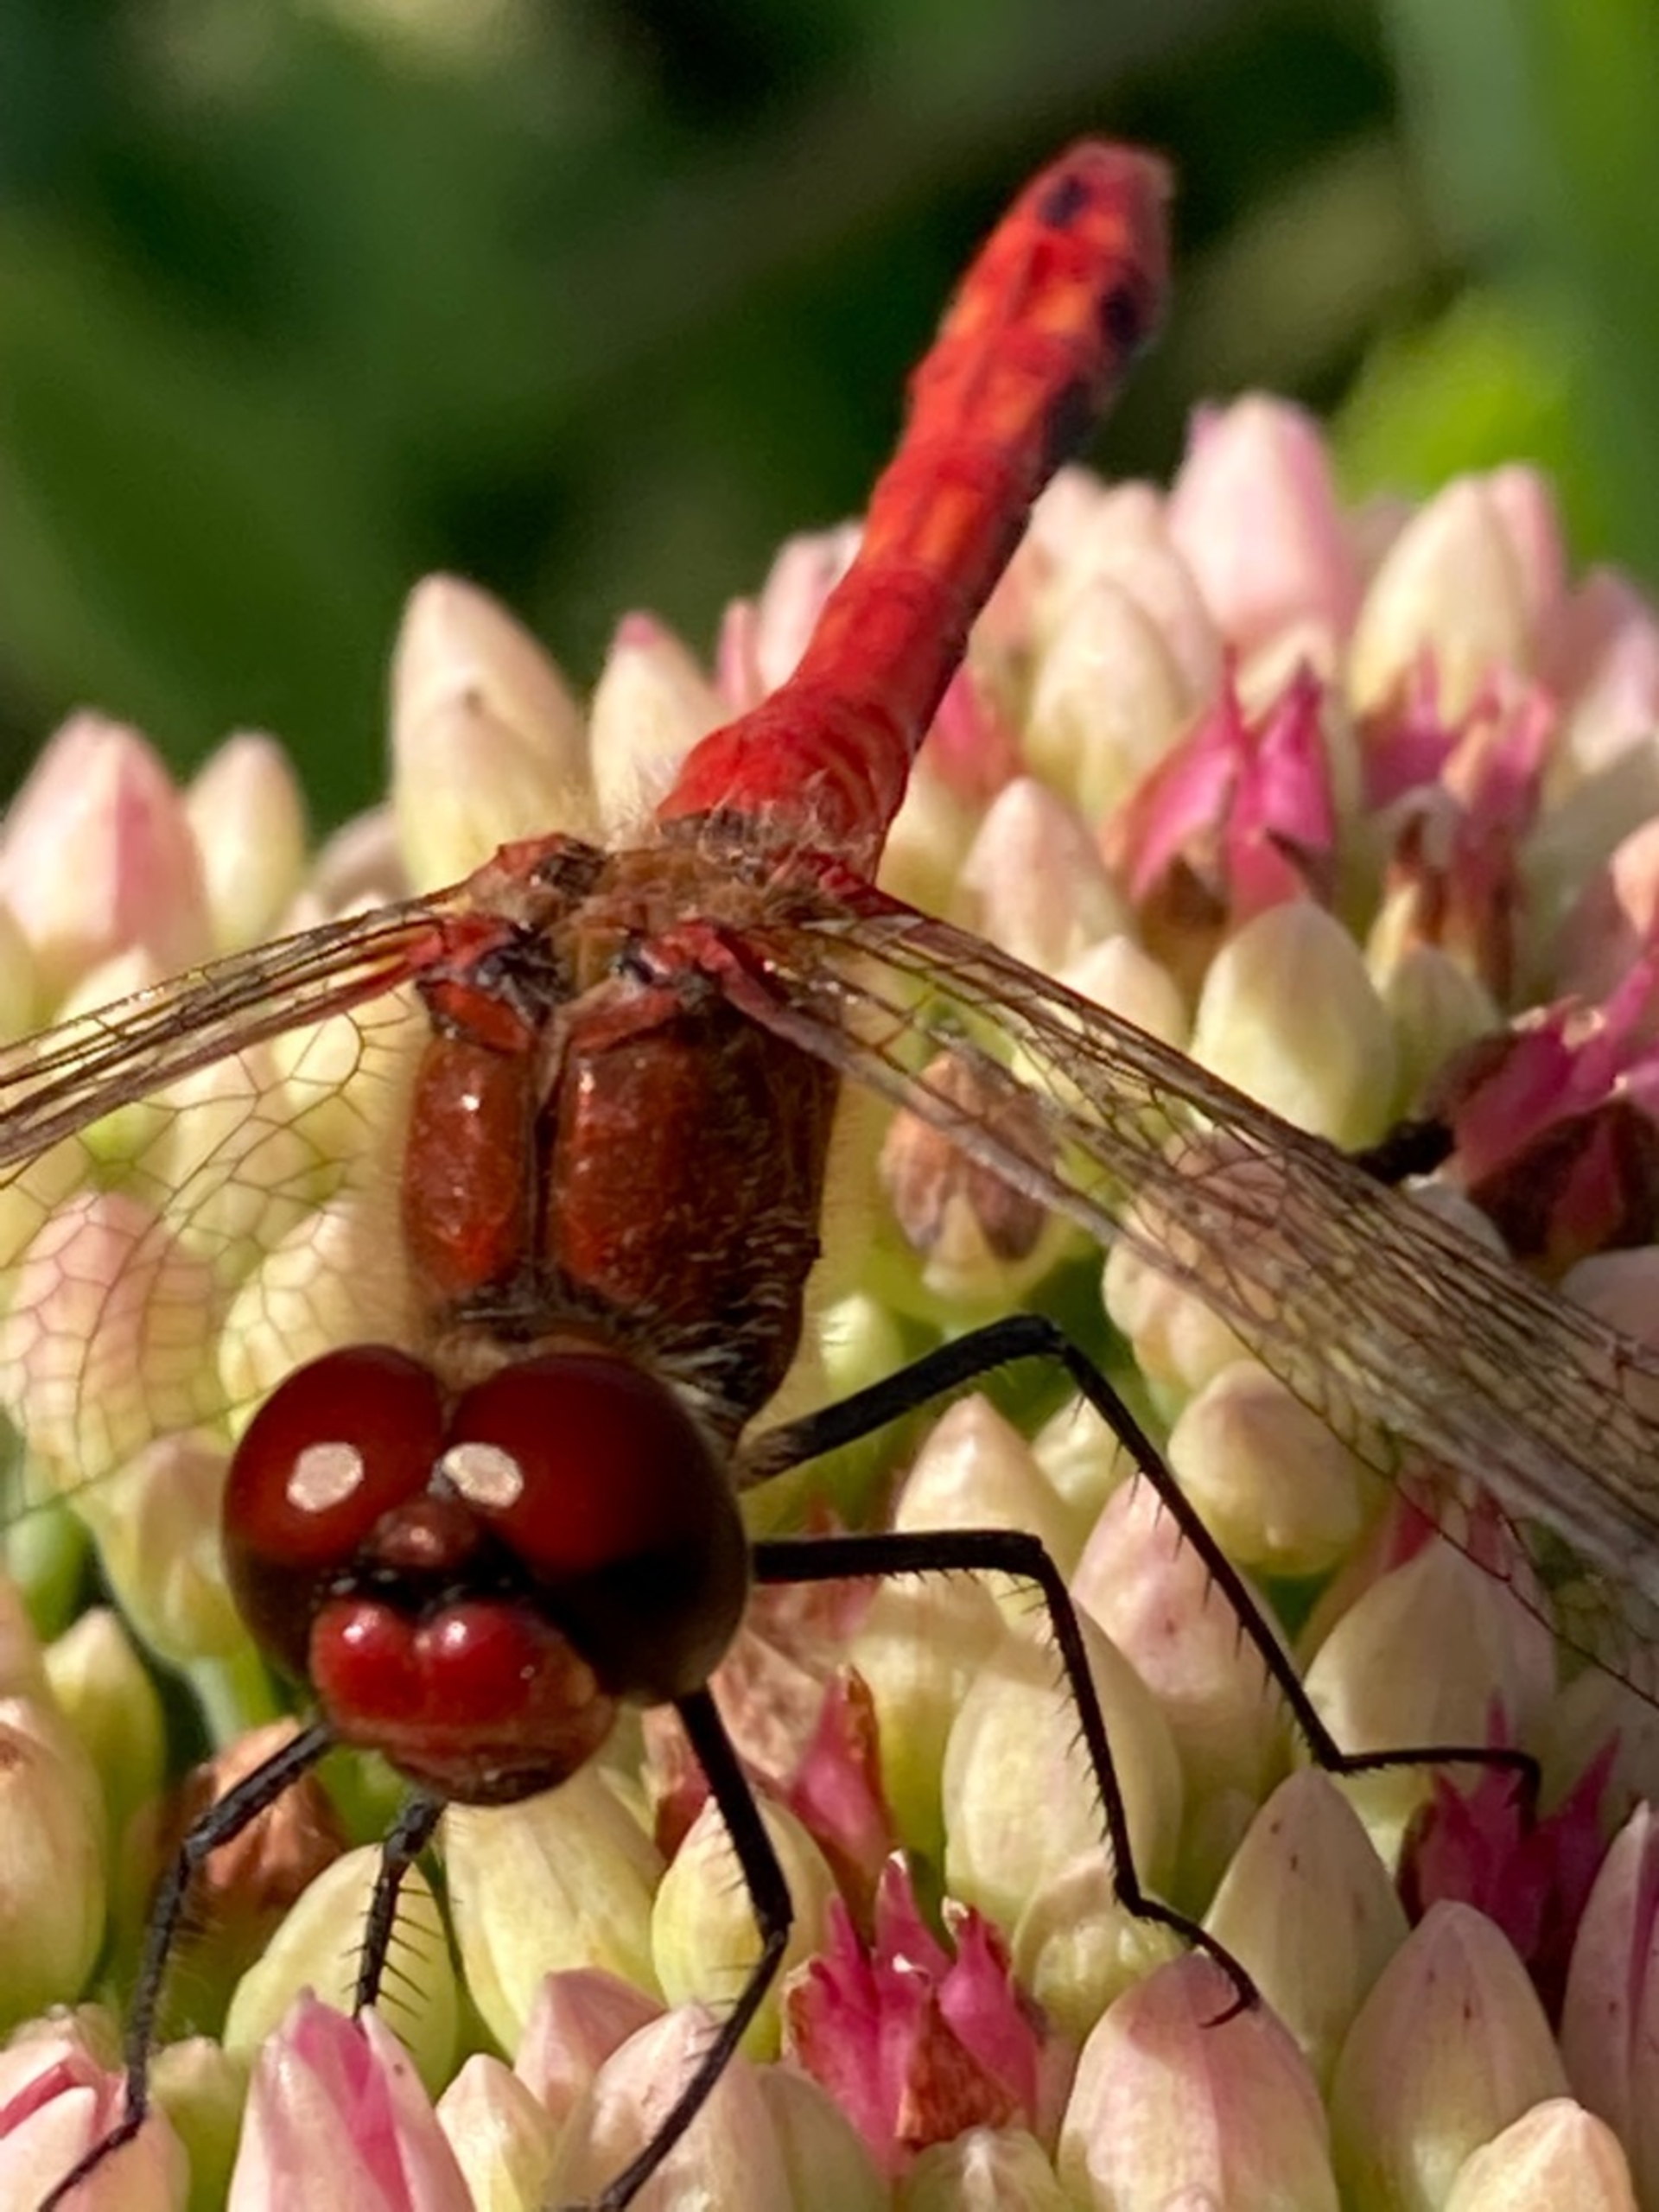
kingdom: Animalia
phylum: Arthropoda
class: Insecta
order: Odonata
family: Libellulidae
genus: Sympetrum
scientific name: Sympetrum sanguineum
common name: Blodrød hedelibel
